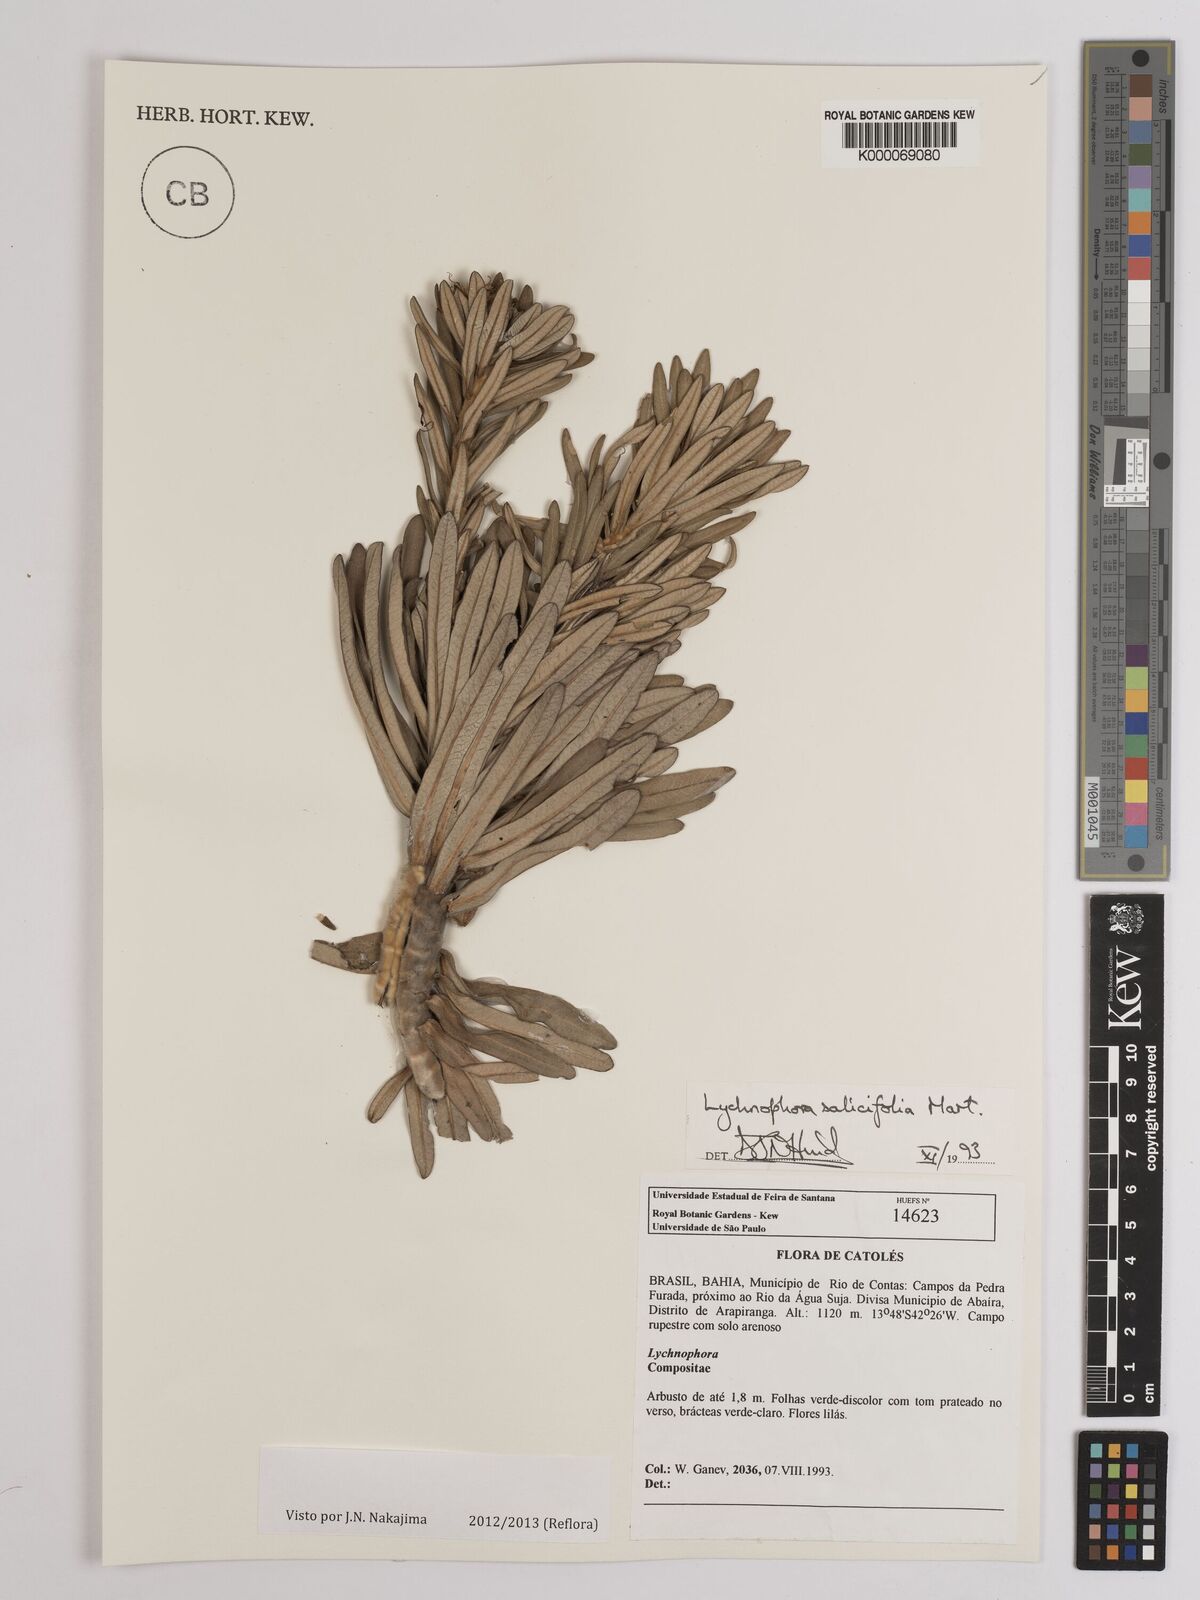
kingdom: Plantae
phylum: Tracheophyta
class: Magnoliopsida
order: Asterales
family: Asteraceae
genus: Lychnophora
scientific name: Lychnophora salicifolia
